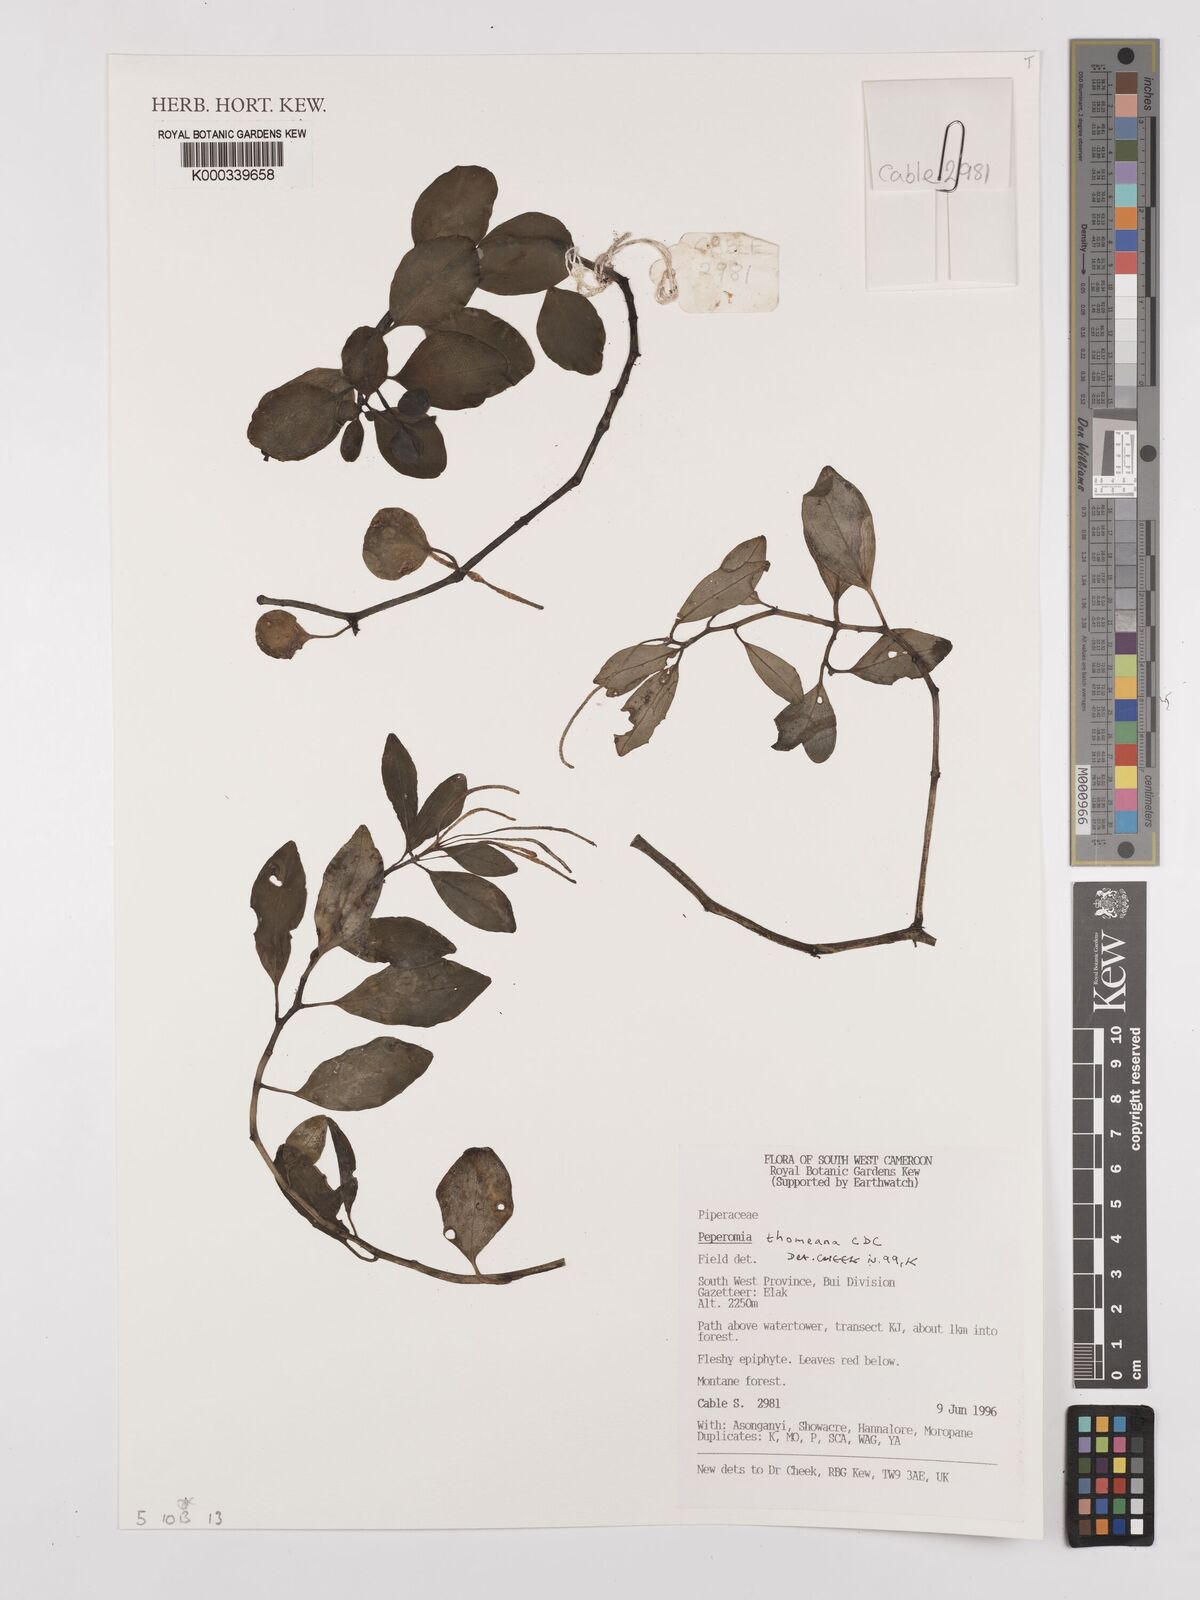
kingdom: Plantae
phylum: Tracheophyta
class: Magnoliopsida
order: Piperales
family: Piperaceae
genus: Peperomia
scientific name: Peperomia thomeana
